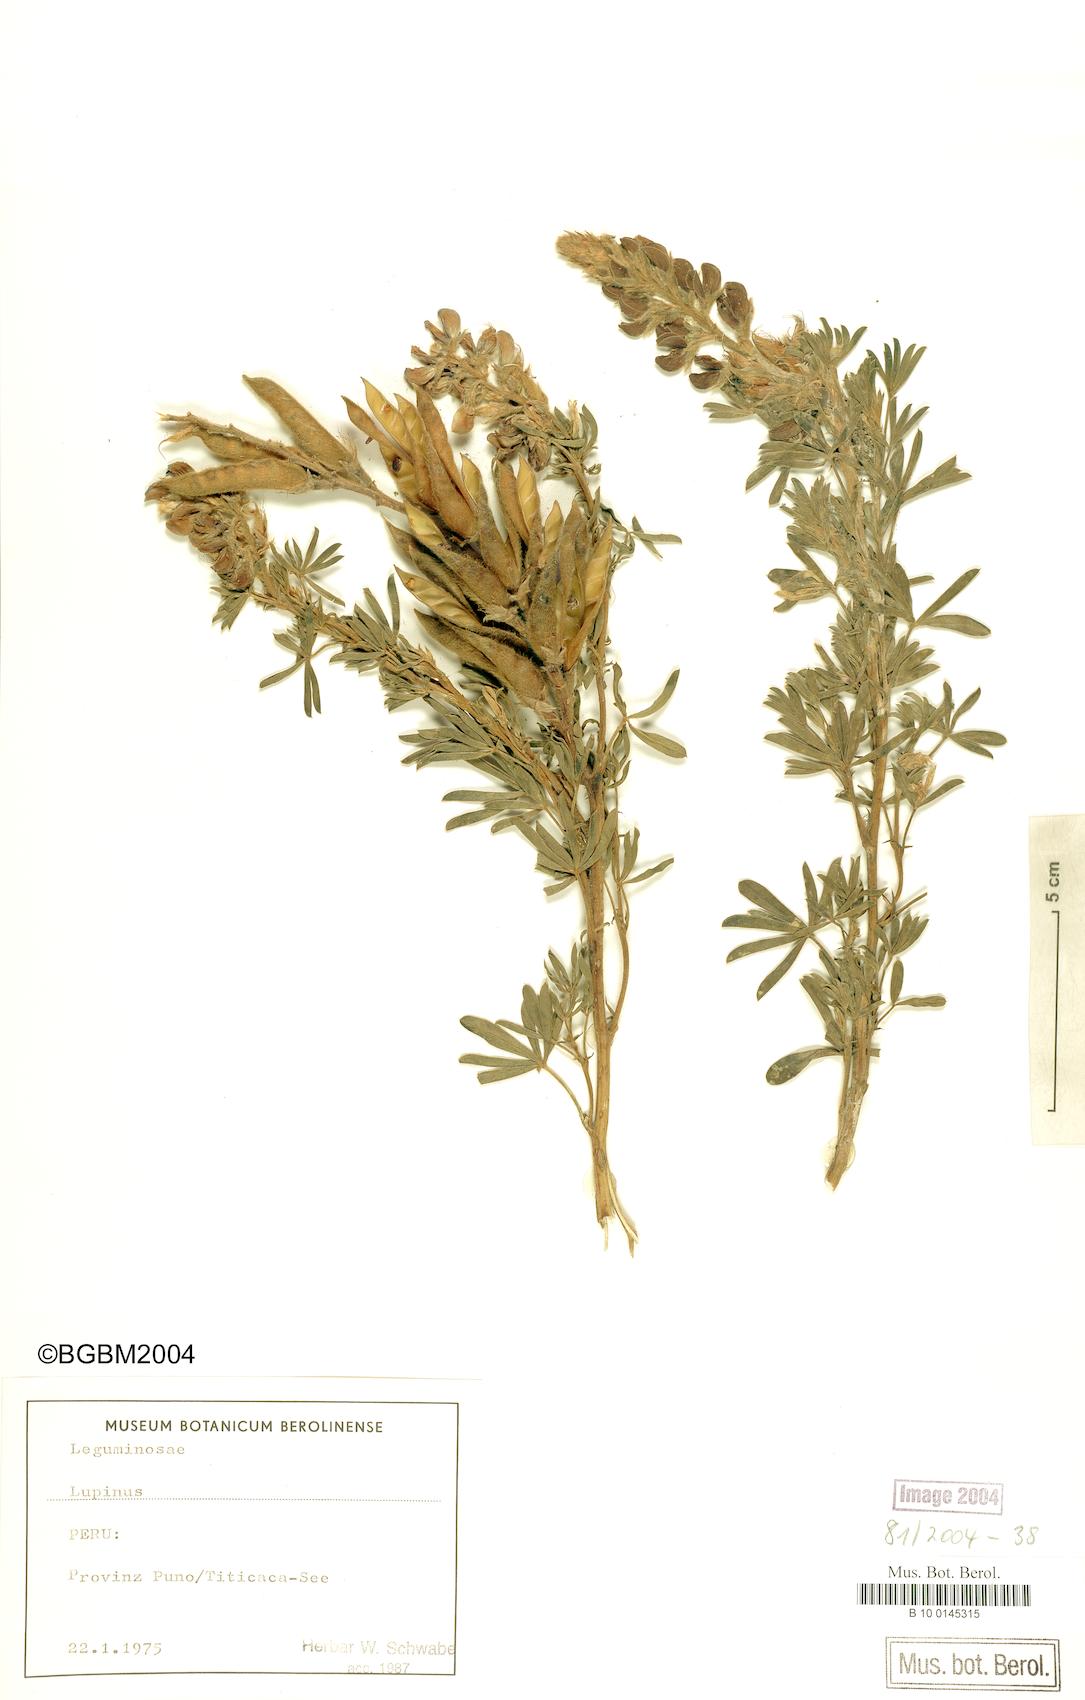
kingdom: Plantae
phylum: Tracheophyta
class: Magnoliopsida
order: Fabales
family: Fabaceae
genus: Lupinus
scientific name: Lupinus
